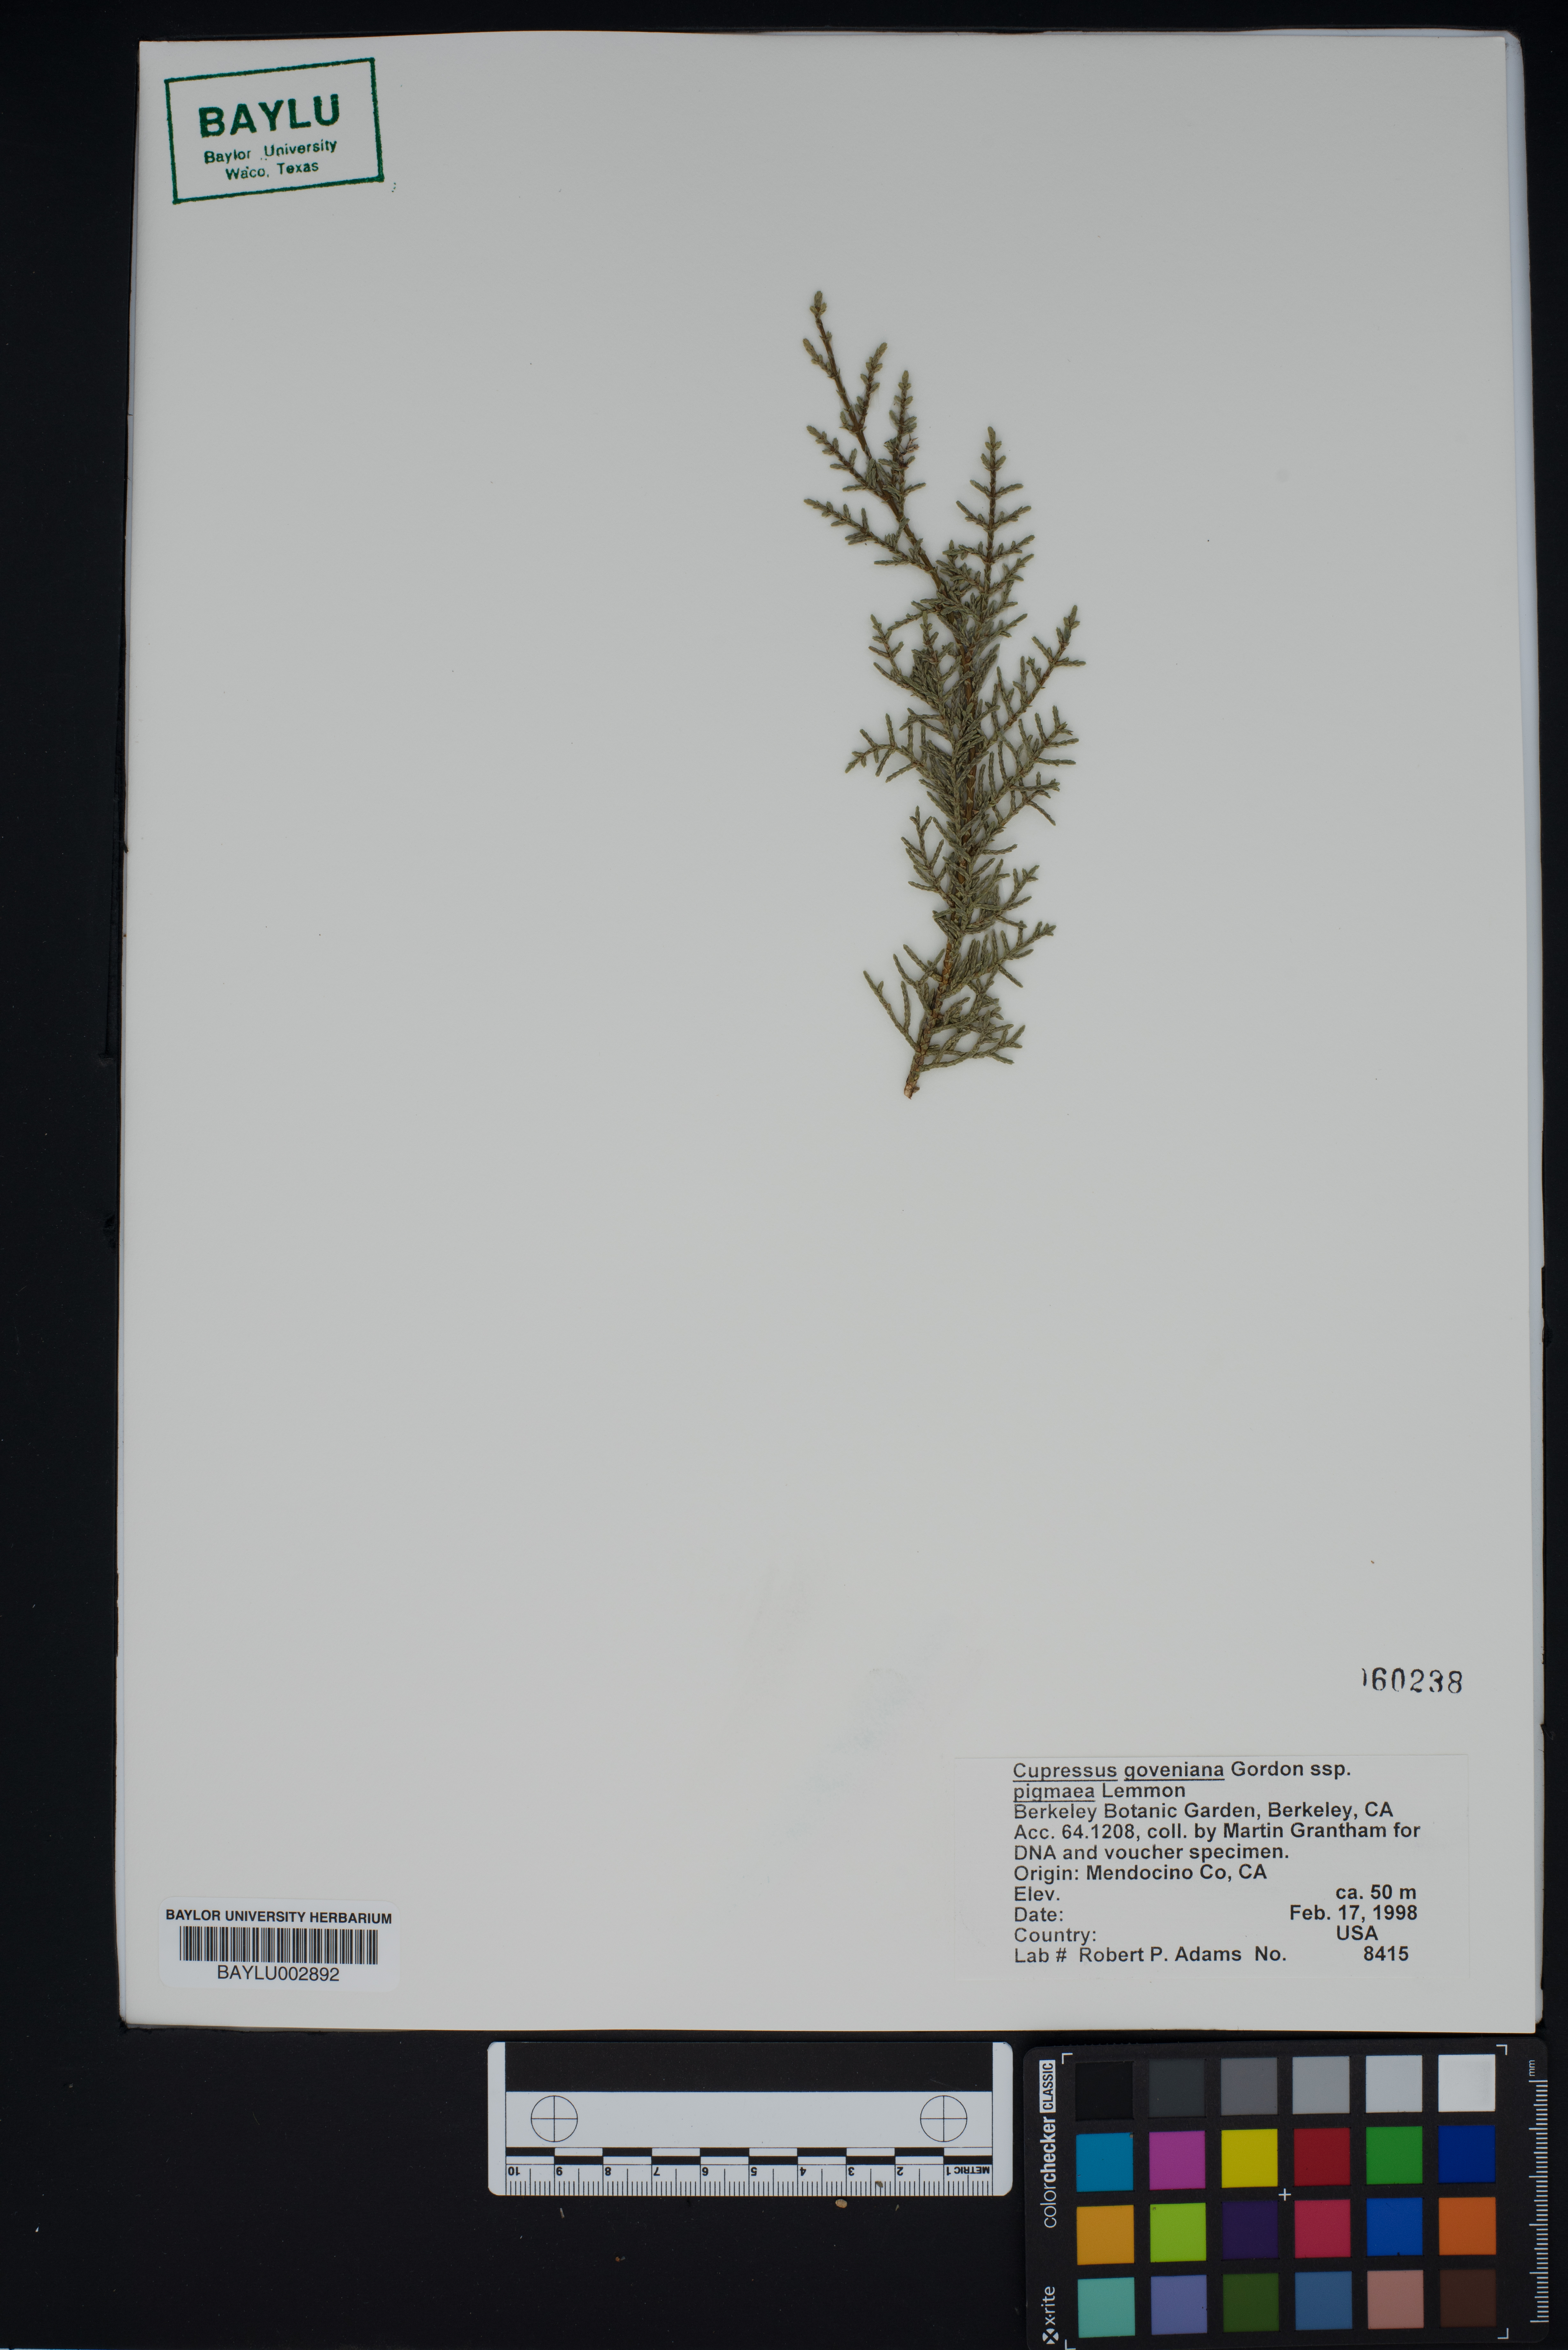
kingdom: Plantae
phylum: Tracheophyta
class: Pinopsida
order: Pinales
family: Cupressaceae
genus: Cupressus
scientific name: Cupressus goveniana
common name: Gowen cypress
